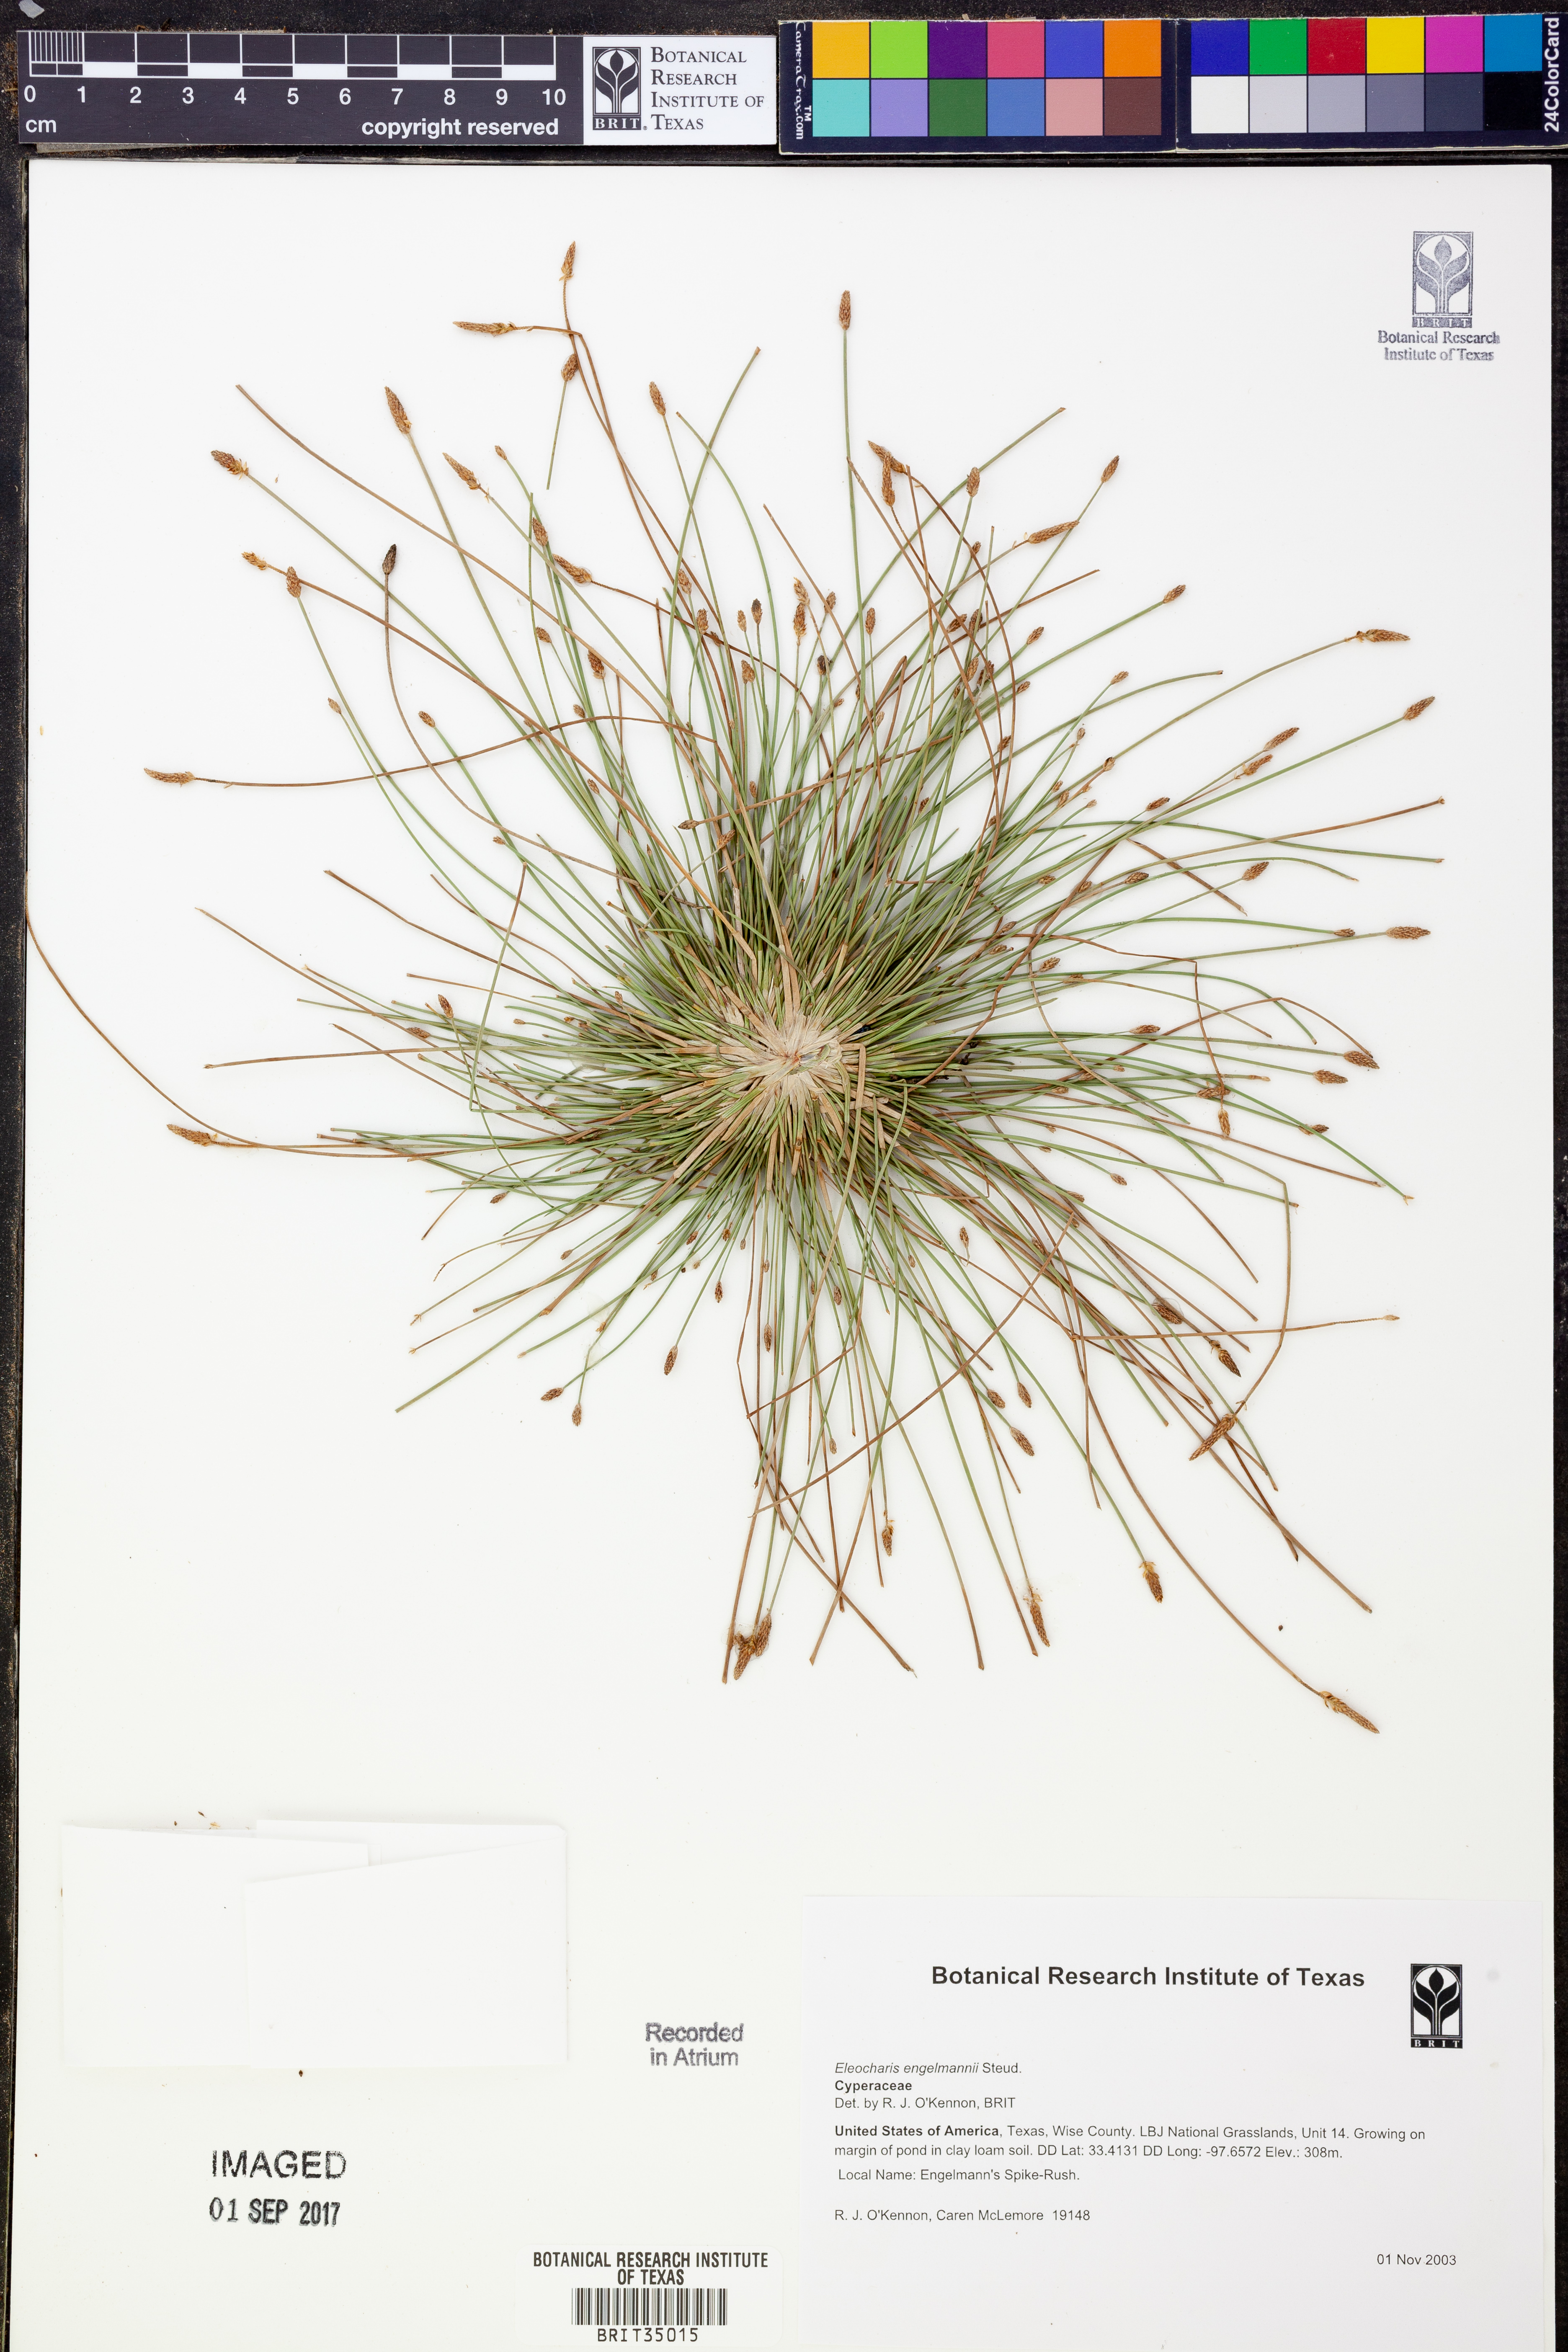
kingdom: Plantae
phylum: Tracheophyta
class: Liliopsida
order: Poales
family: Cyperaceae
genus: Eleocharis
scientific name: Eleocharis engelmannii
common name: Engelmann's spikerush
